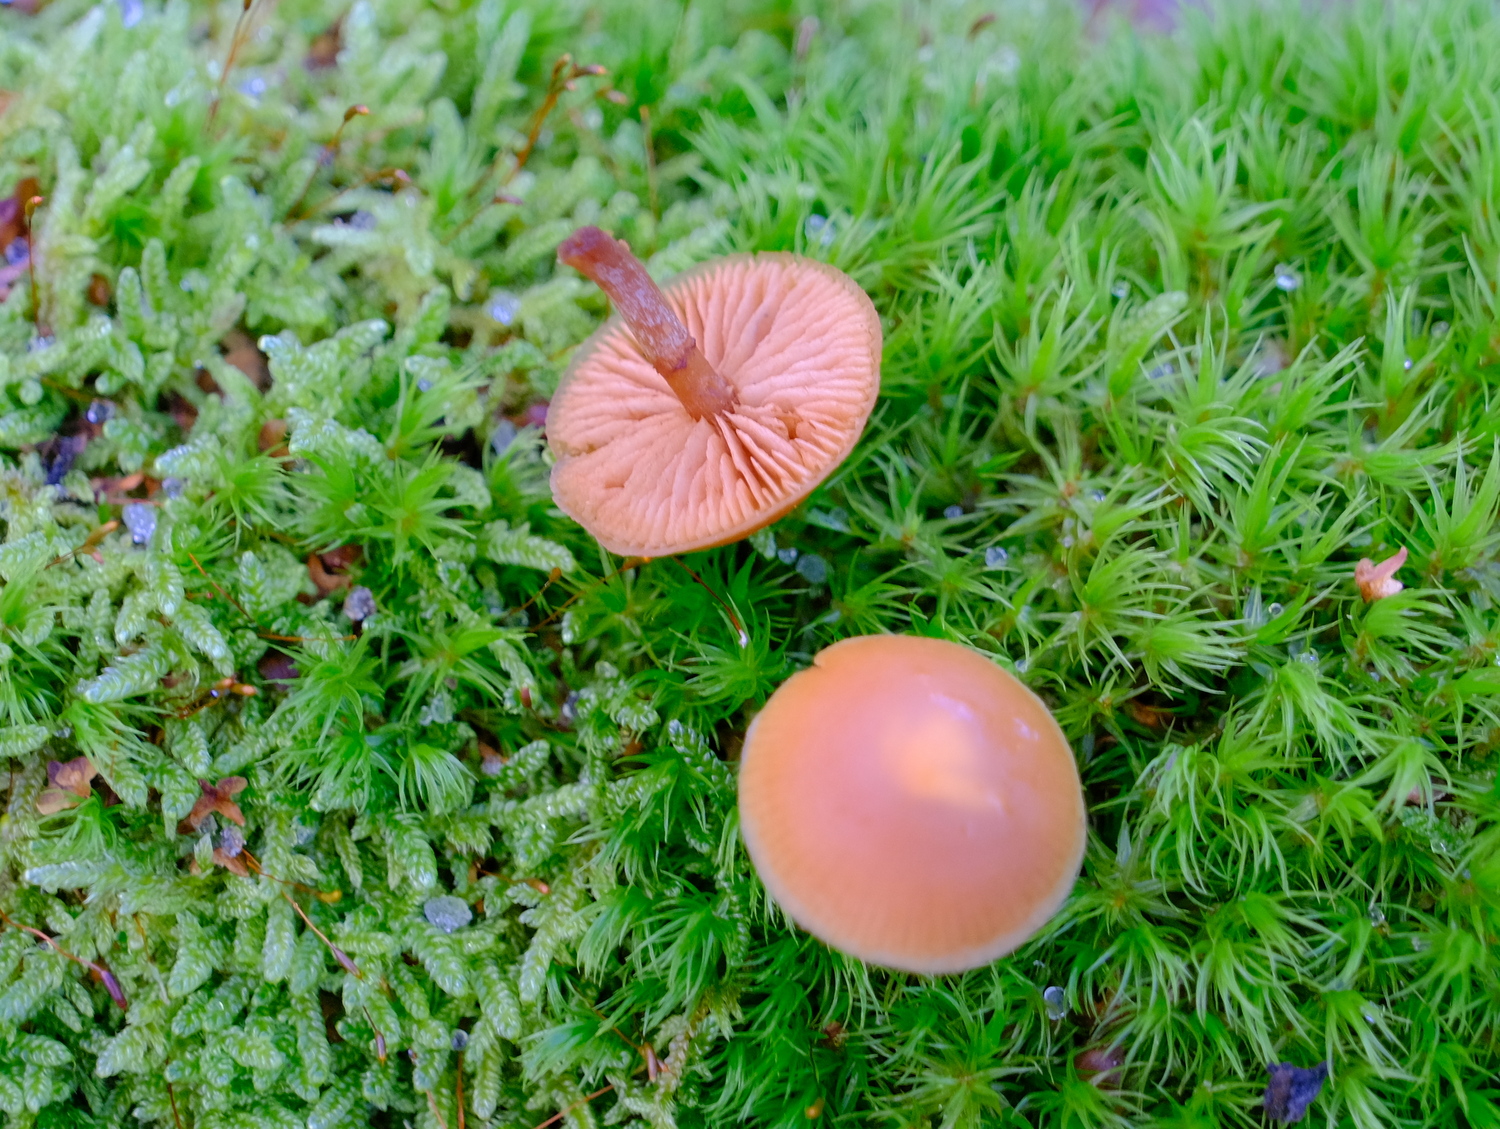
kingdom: Fungi
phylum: Basidiomycota
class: Agaricomycetes
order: Agaricales
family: Hymenogastraceae
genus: Galerina
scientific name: Galerina marginata
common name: randbæltet hjelmhat
